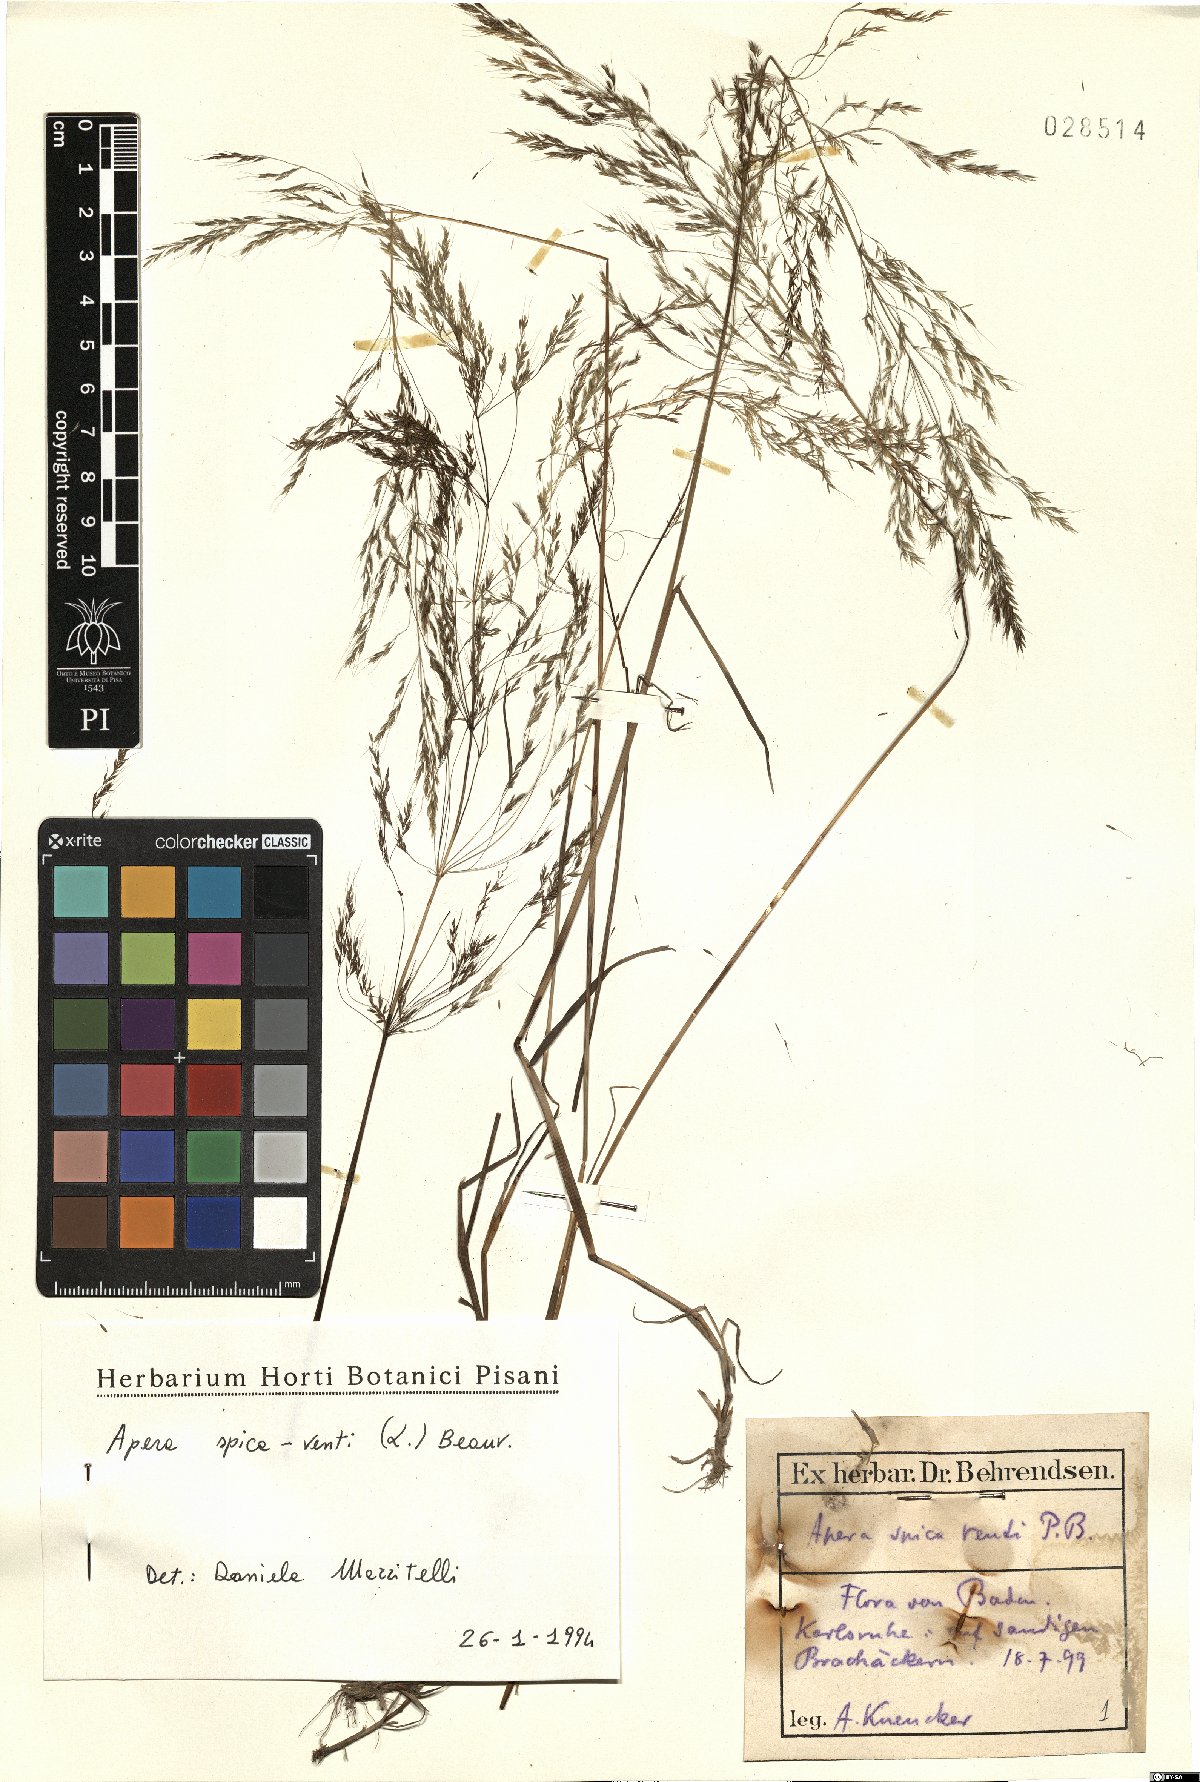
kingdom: Plantae
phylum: Tracheophyta
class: Liliopsida
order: Poales
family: Poaceae
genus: Apera
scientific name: Apera spica-venti
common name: Loose silky-bent
